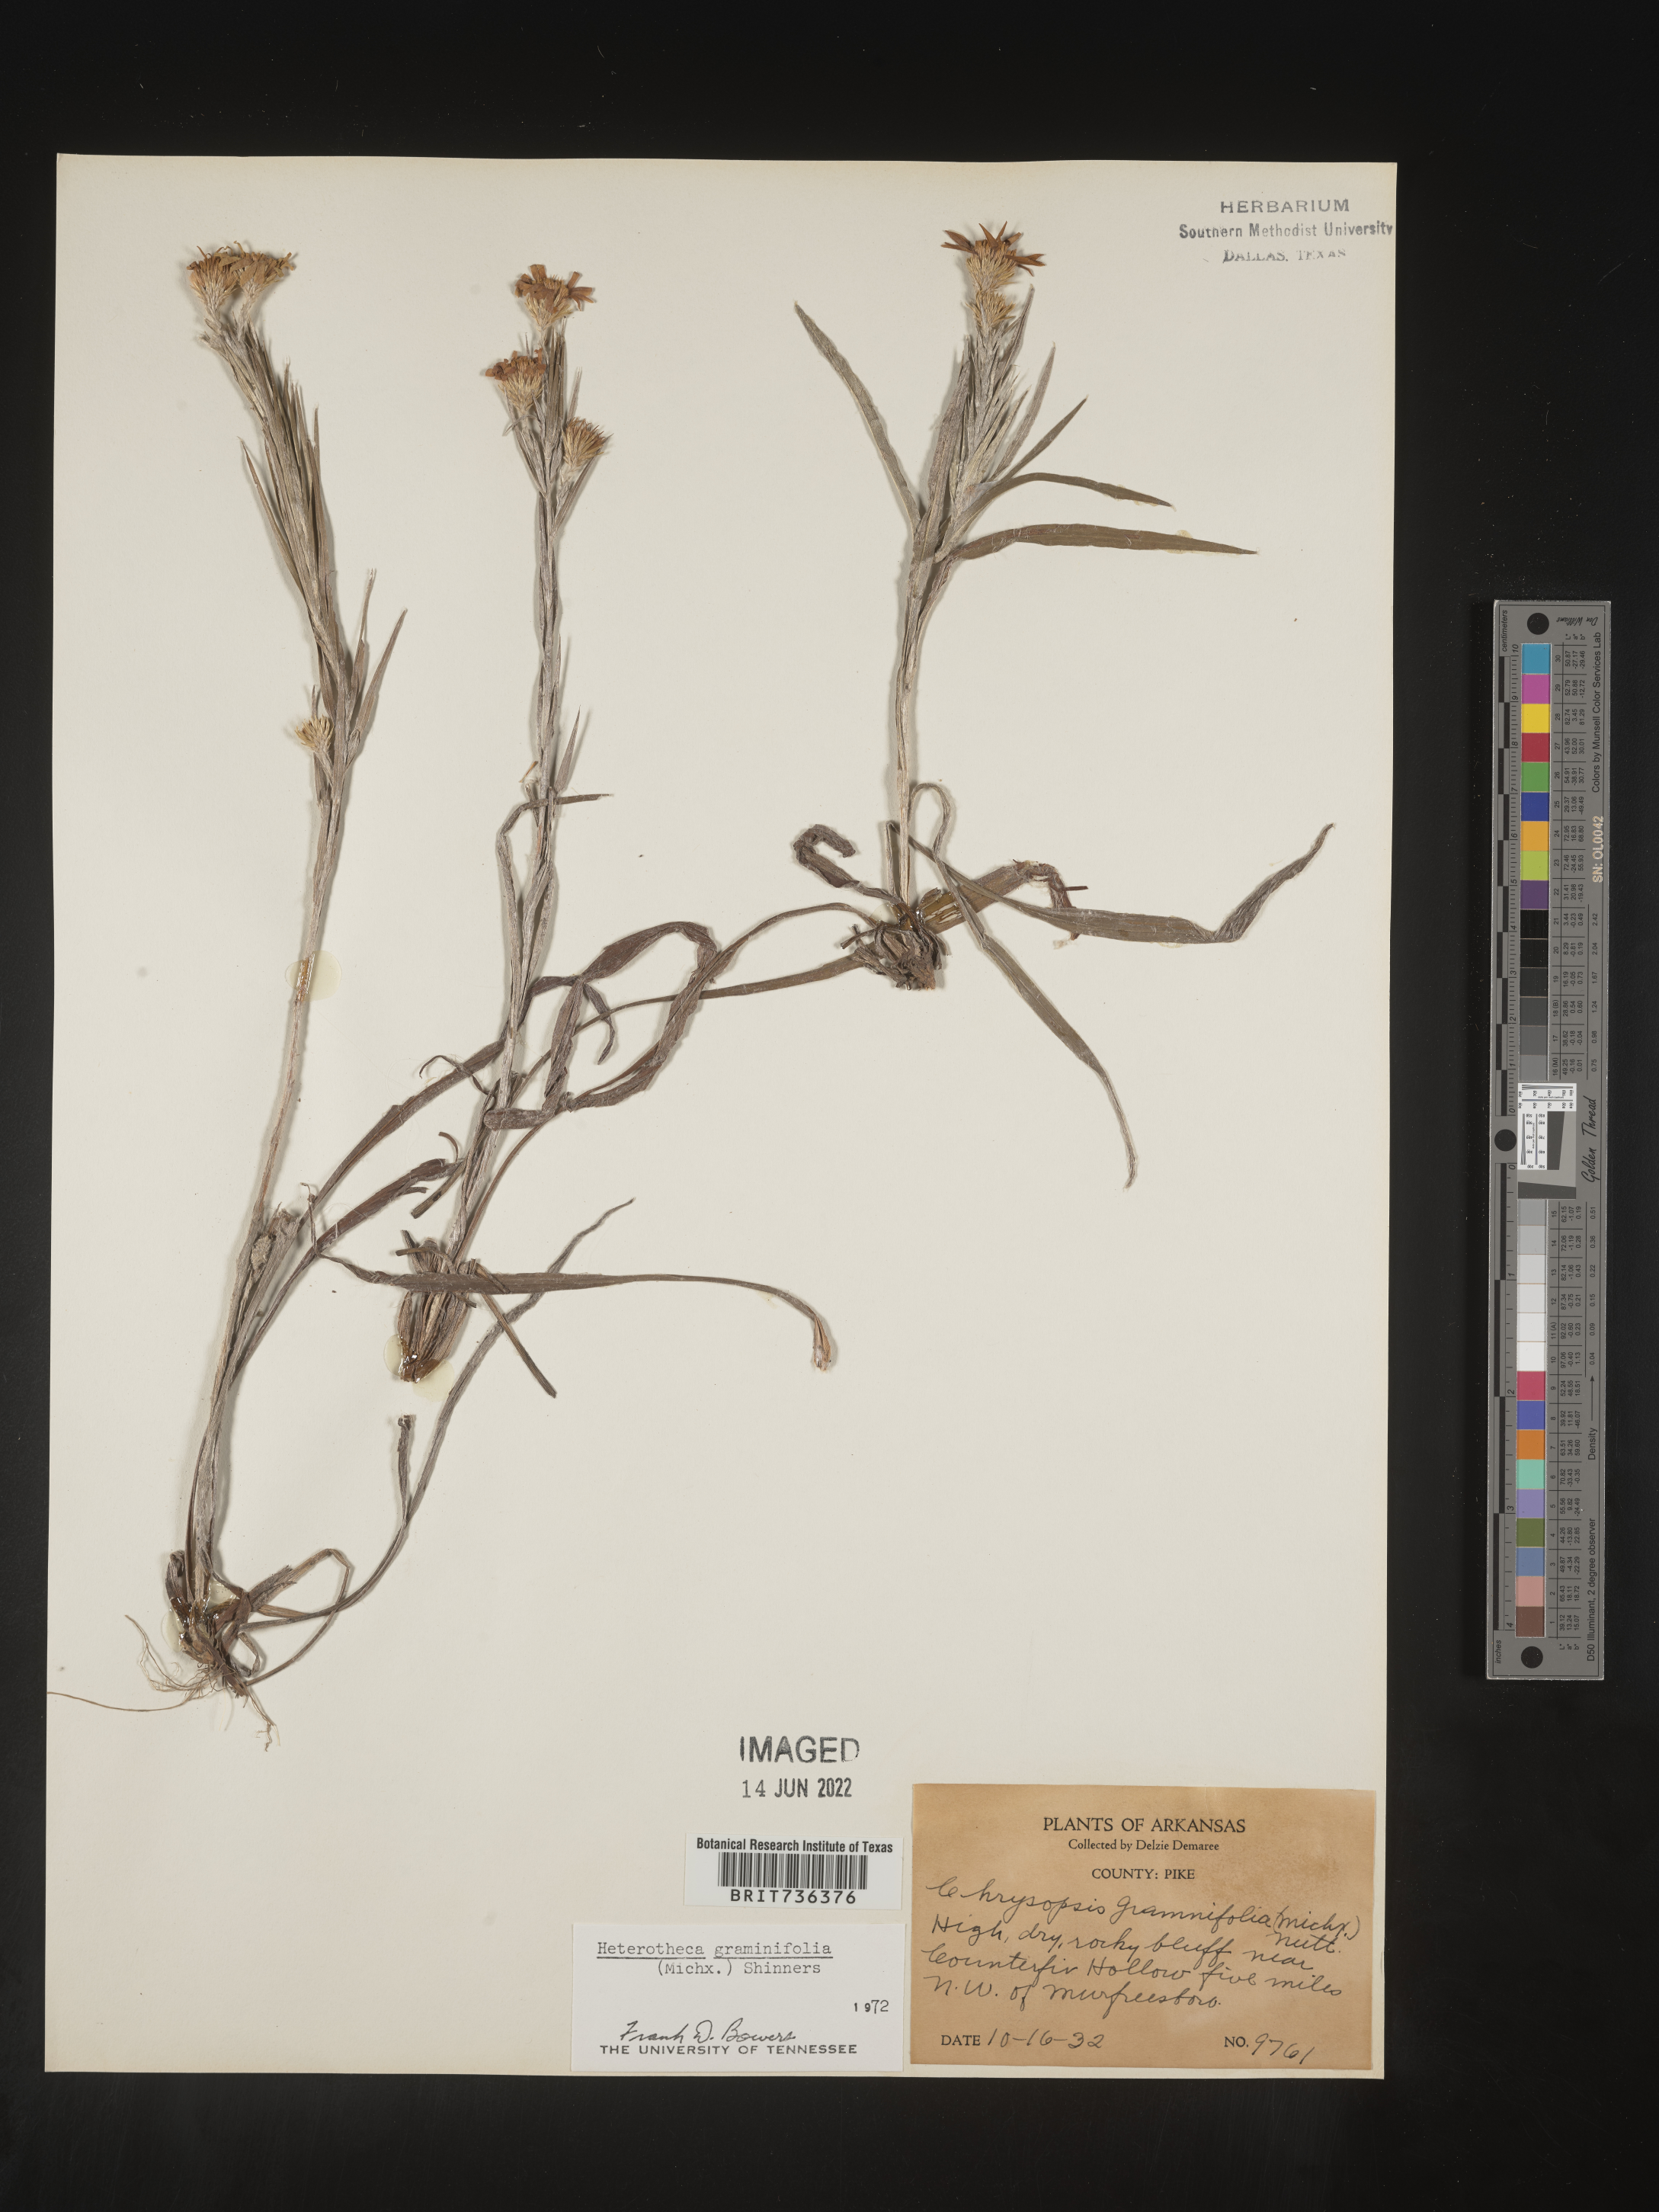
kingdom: Plantae
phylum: Tracheophyta
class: Magnoliopsida
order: Asterales
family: Asteraceae
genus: Pityopsis
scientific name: Pityopsis tenuifolia
